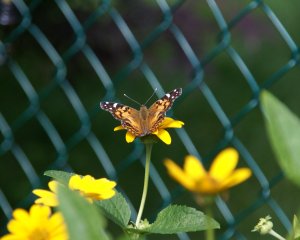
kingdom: Animalia
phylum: Arthropoda
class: Insecta
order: Lepidoptera
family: Nymphalidae
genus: Vanessa
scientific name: Vanessa virginiensis
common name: American Lady
